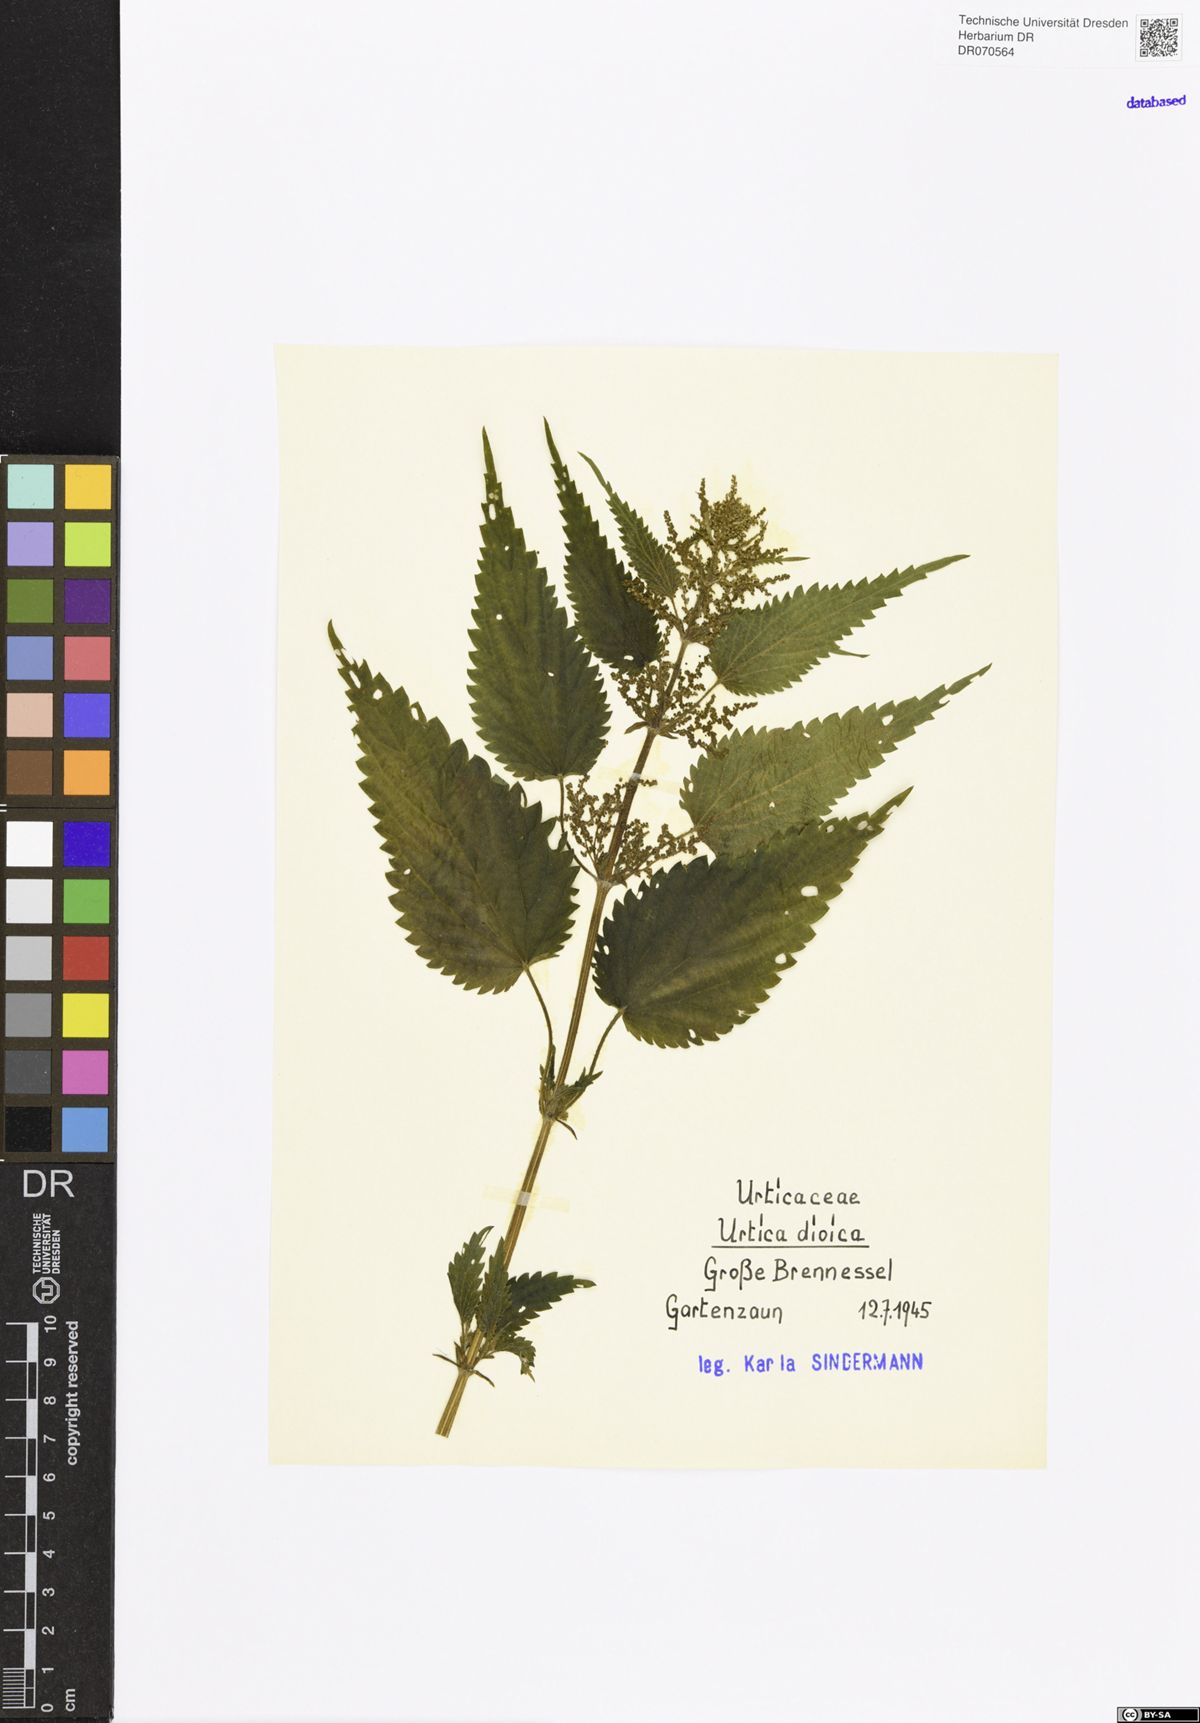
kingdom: Plantae
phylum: Tracheophyta
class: Magnoliopsida
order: Rosales
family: Urticaceae
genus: Urtica
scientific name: Urtica dioica
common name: Common nettle
